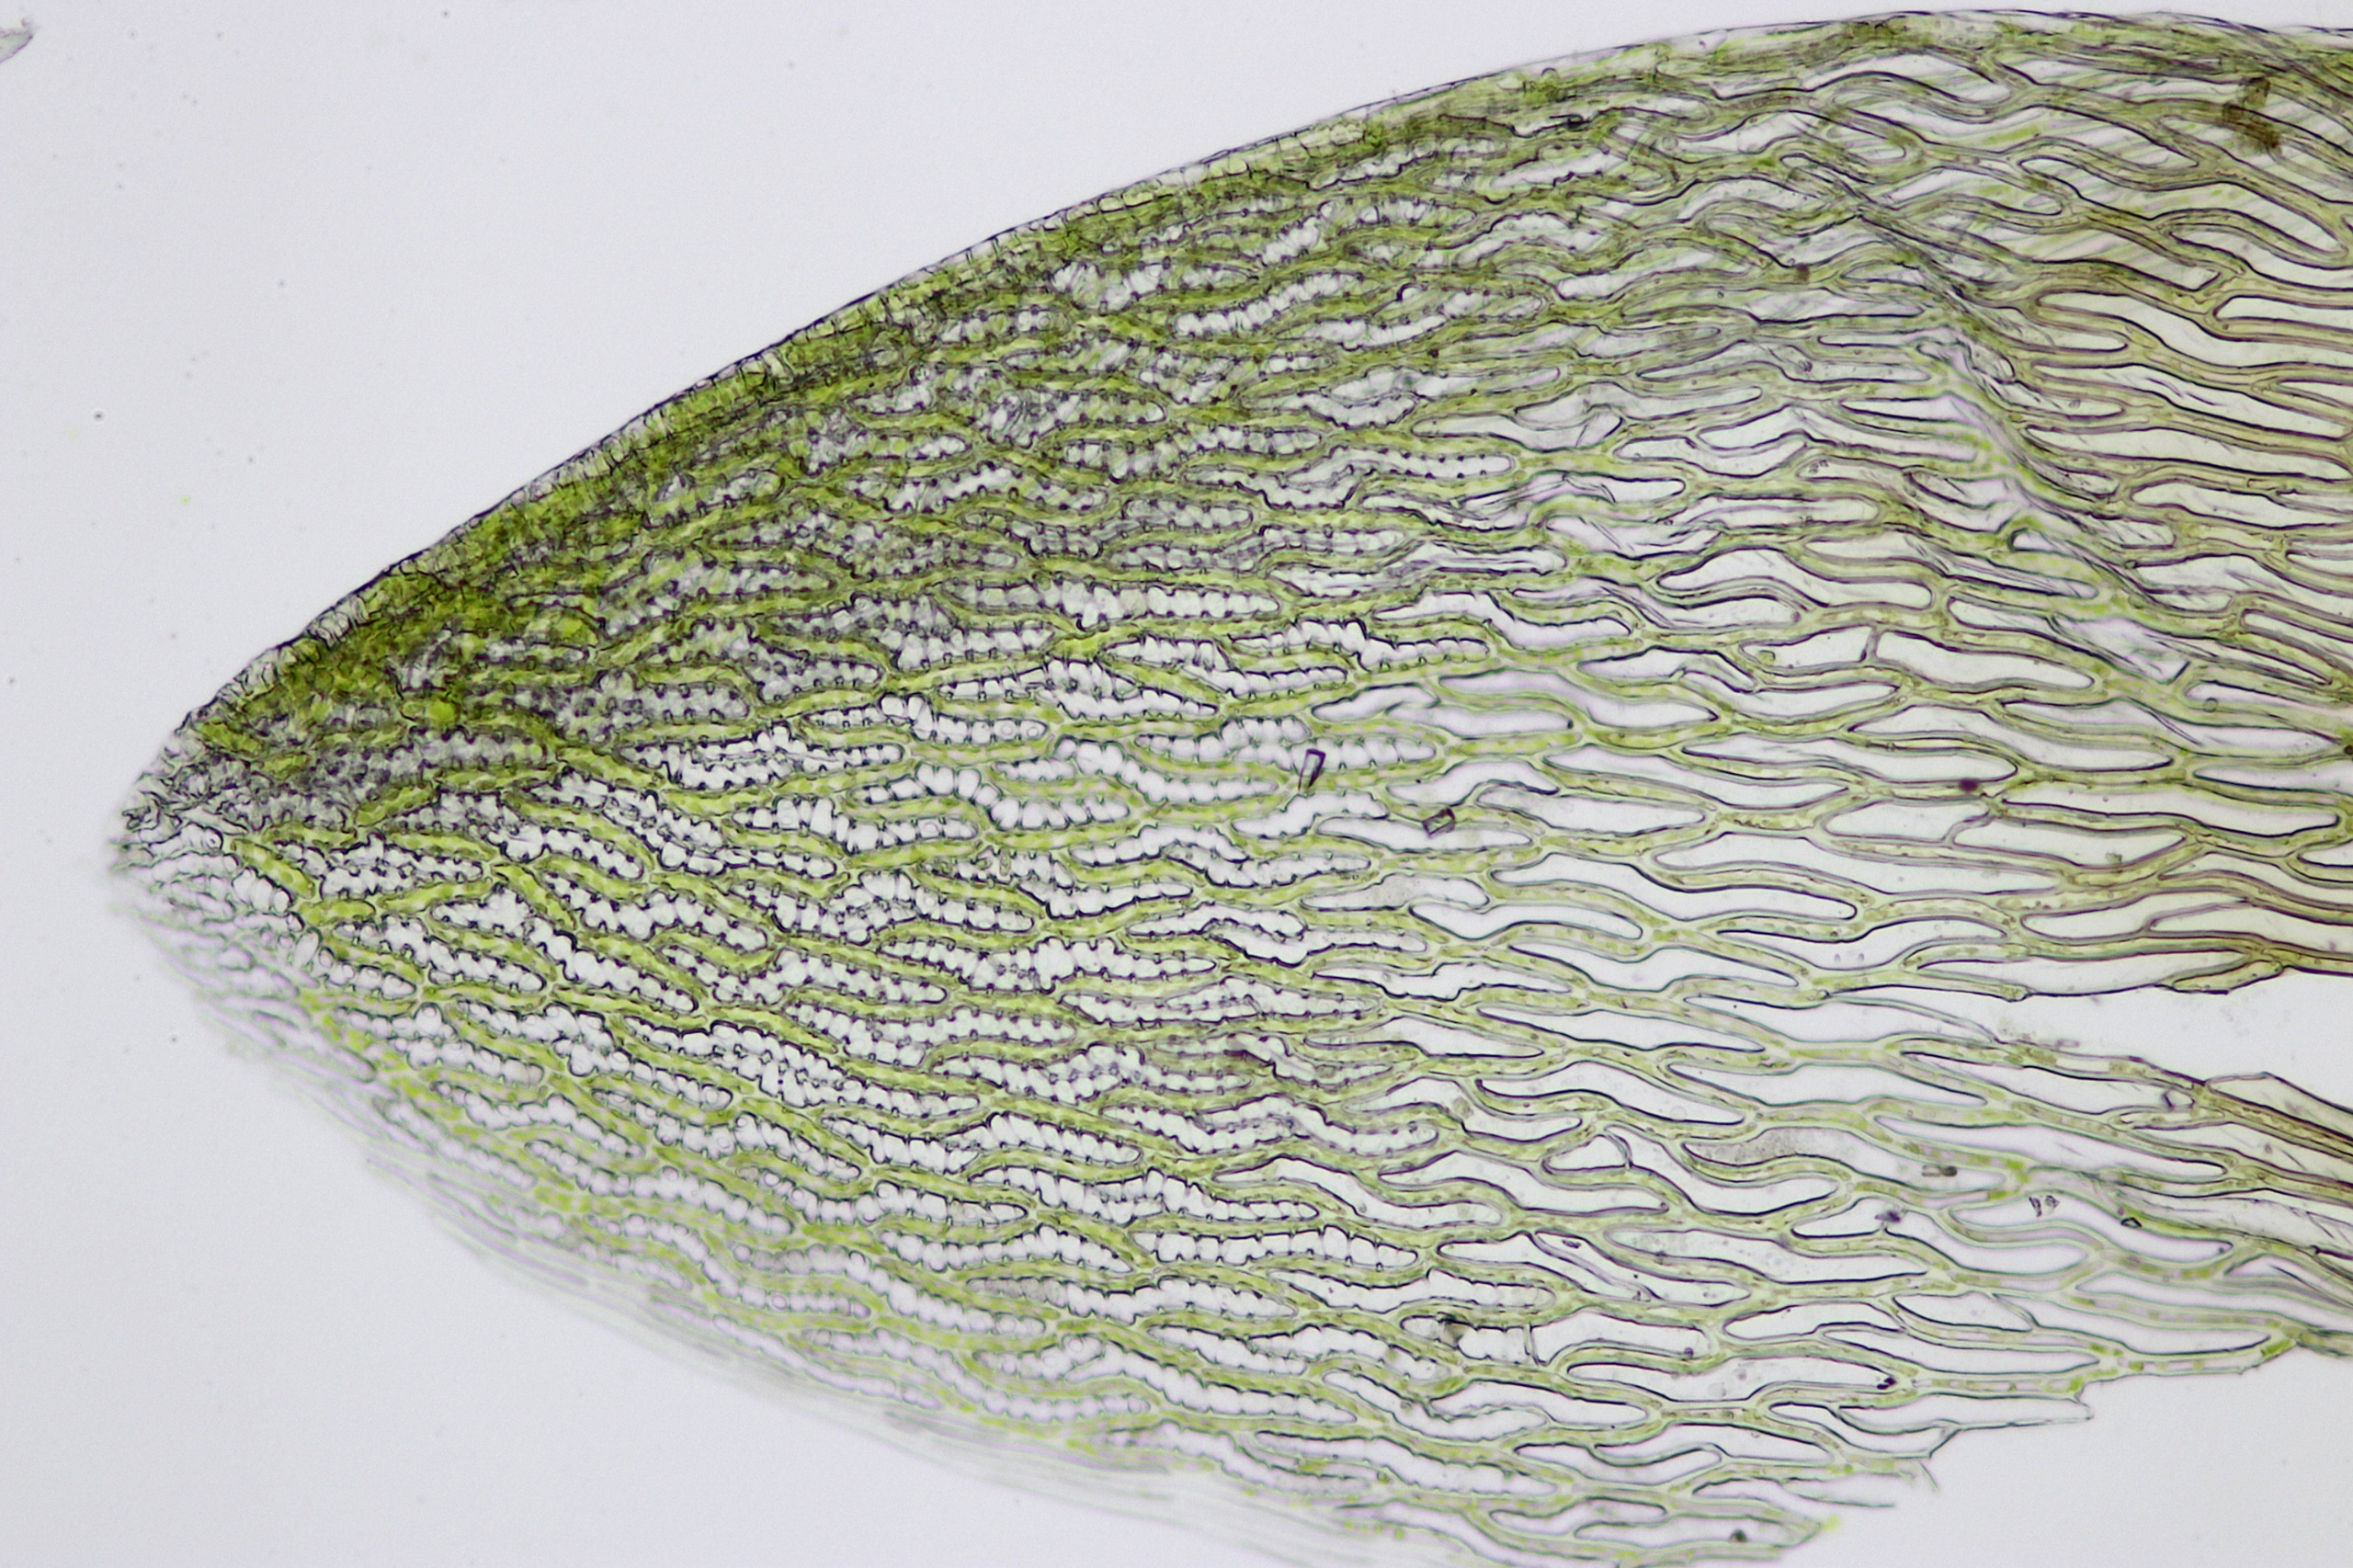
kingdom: Plantae
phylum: Bryophyta
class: Sphagnopsida
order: Sphagnales
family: Sphagnaceae
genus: Sphagnum
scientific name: Sphagnum inundatum
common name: Stump tørvemos
